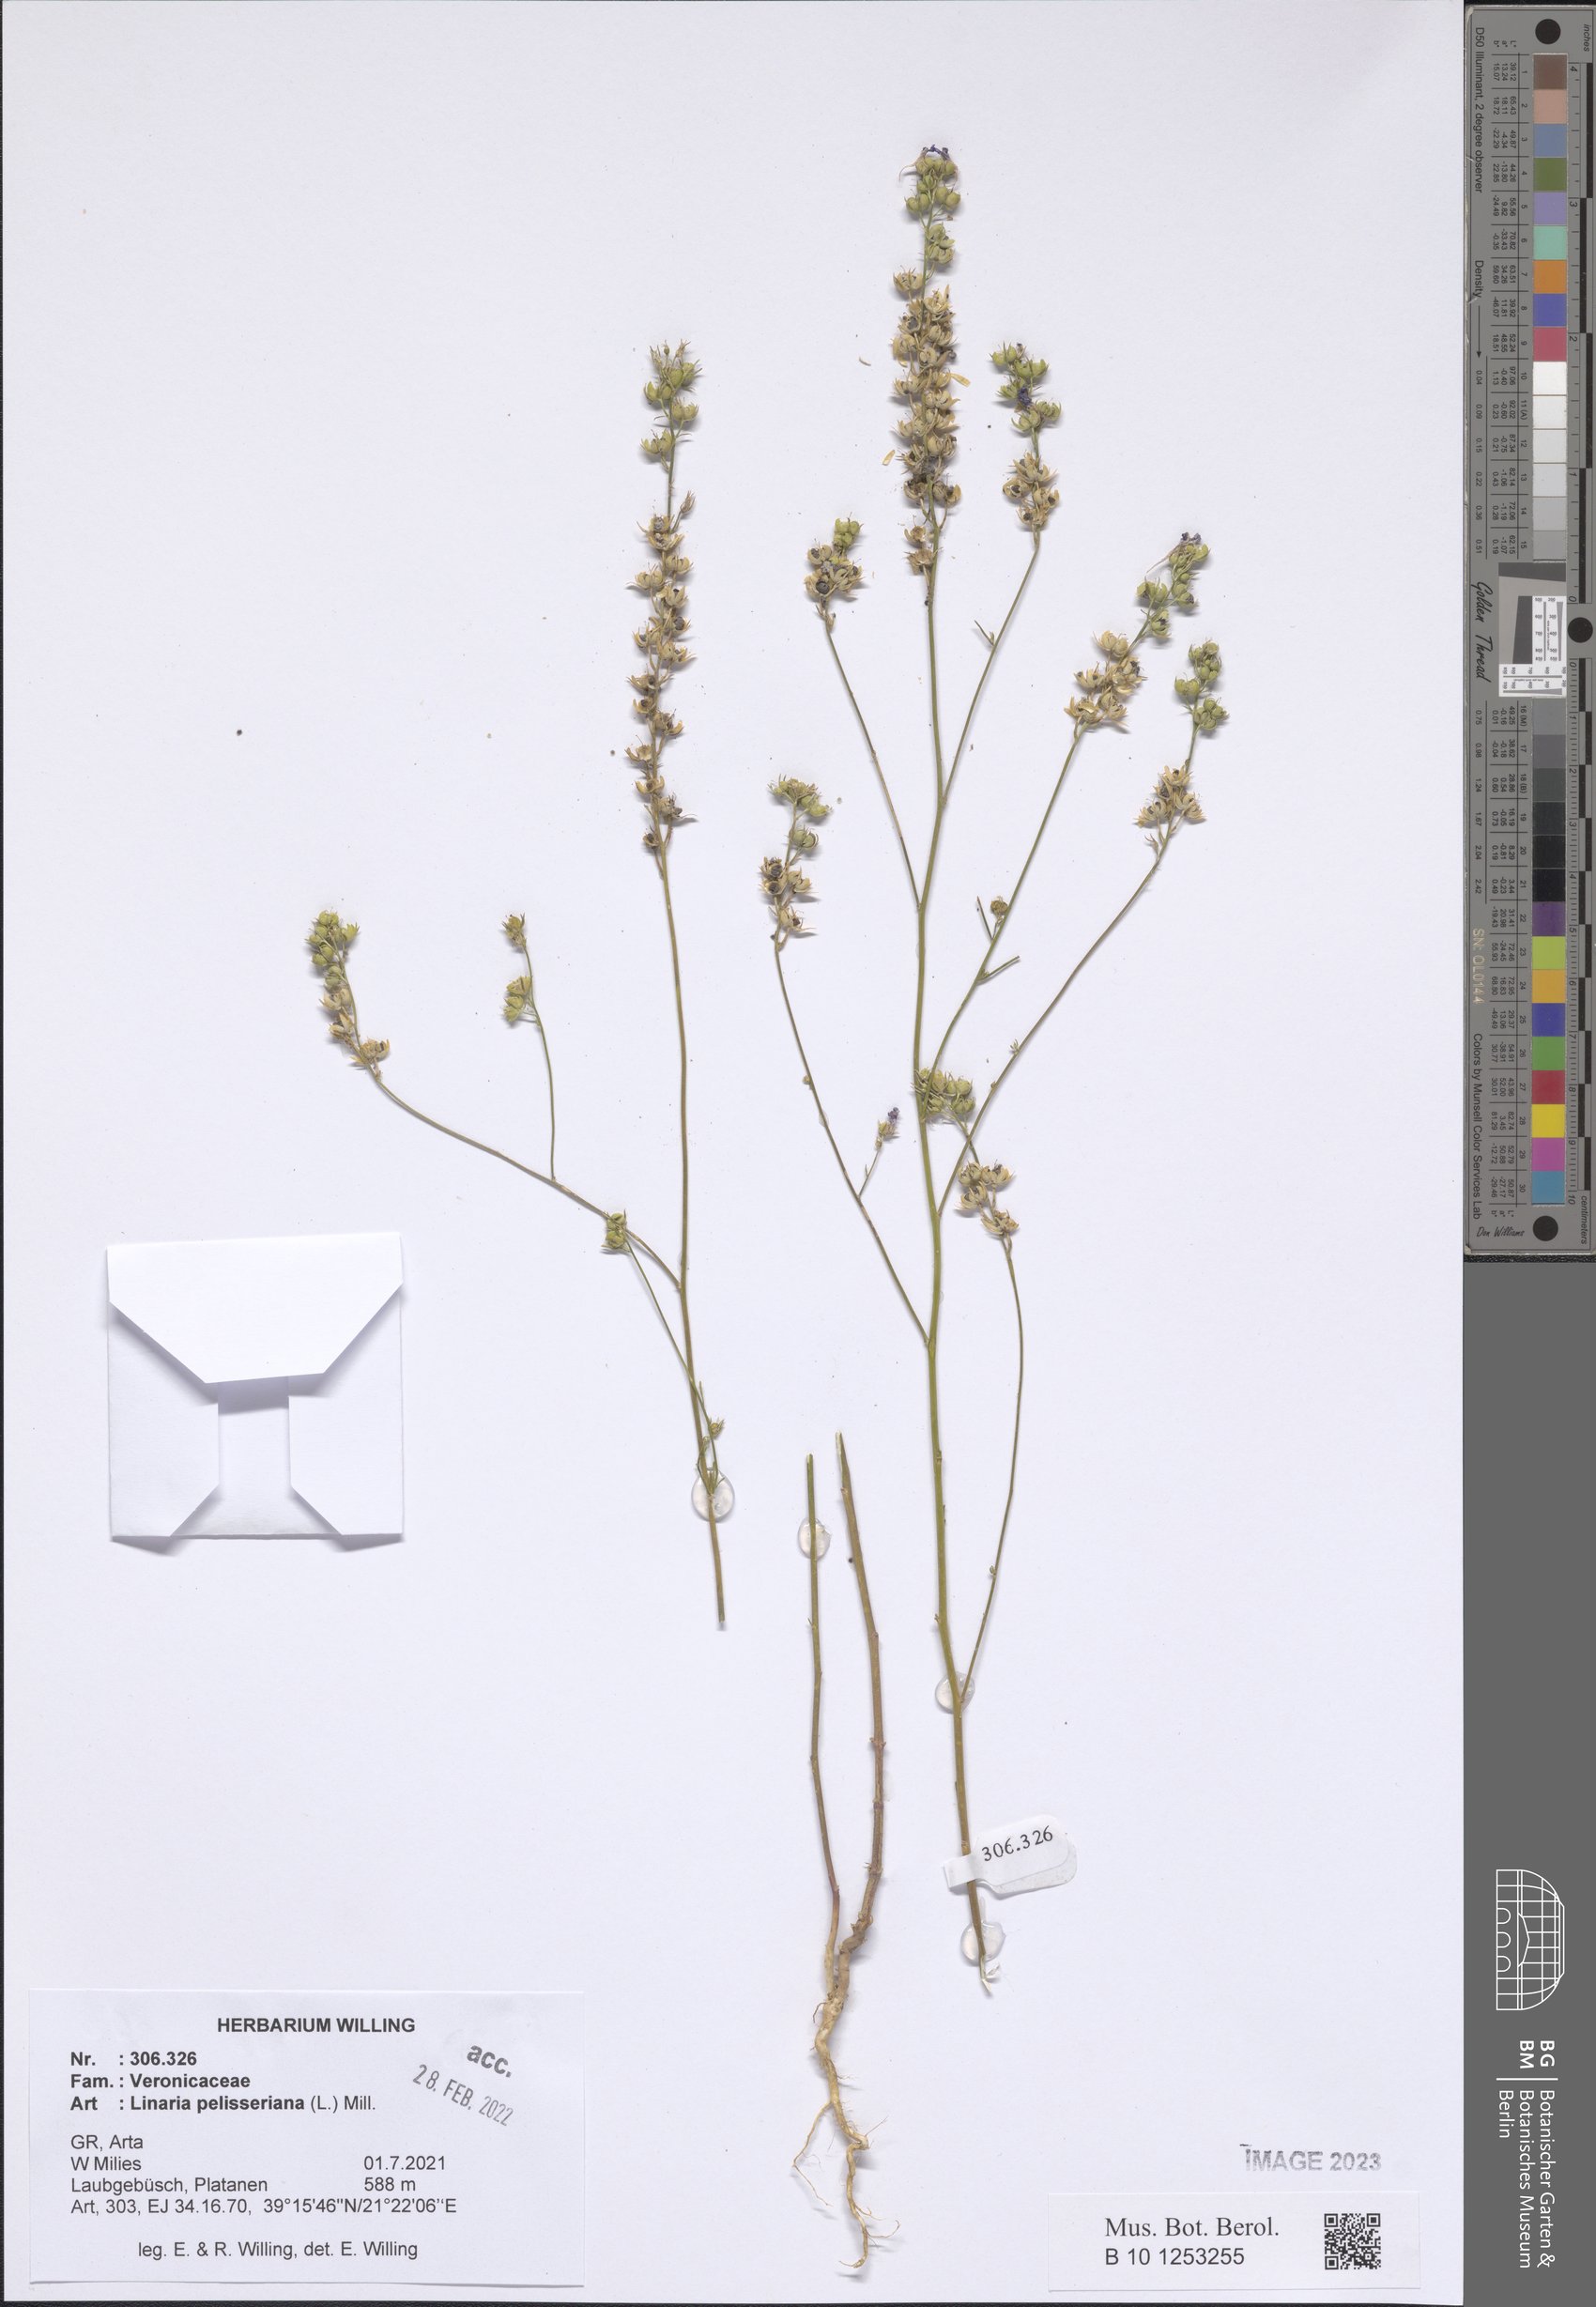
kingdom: Plantae
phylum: Tracheophyta
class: Magnoliopsida
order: Lamiales
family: Plantaginaceae
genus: Linaria
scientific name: Linaria pelisseriana
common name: Jersey toadflax
